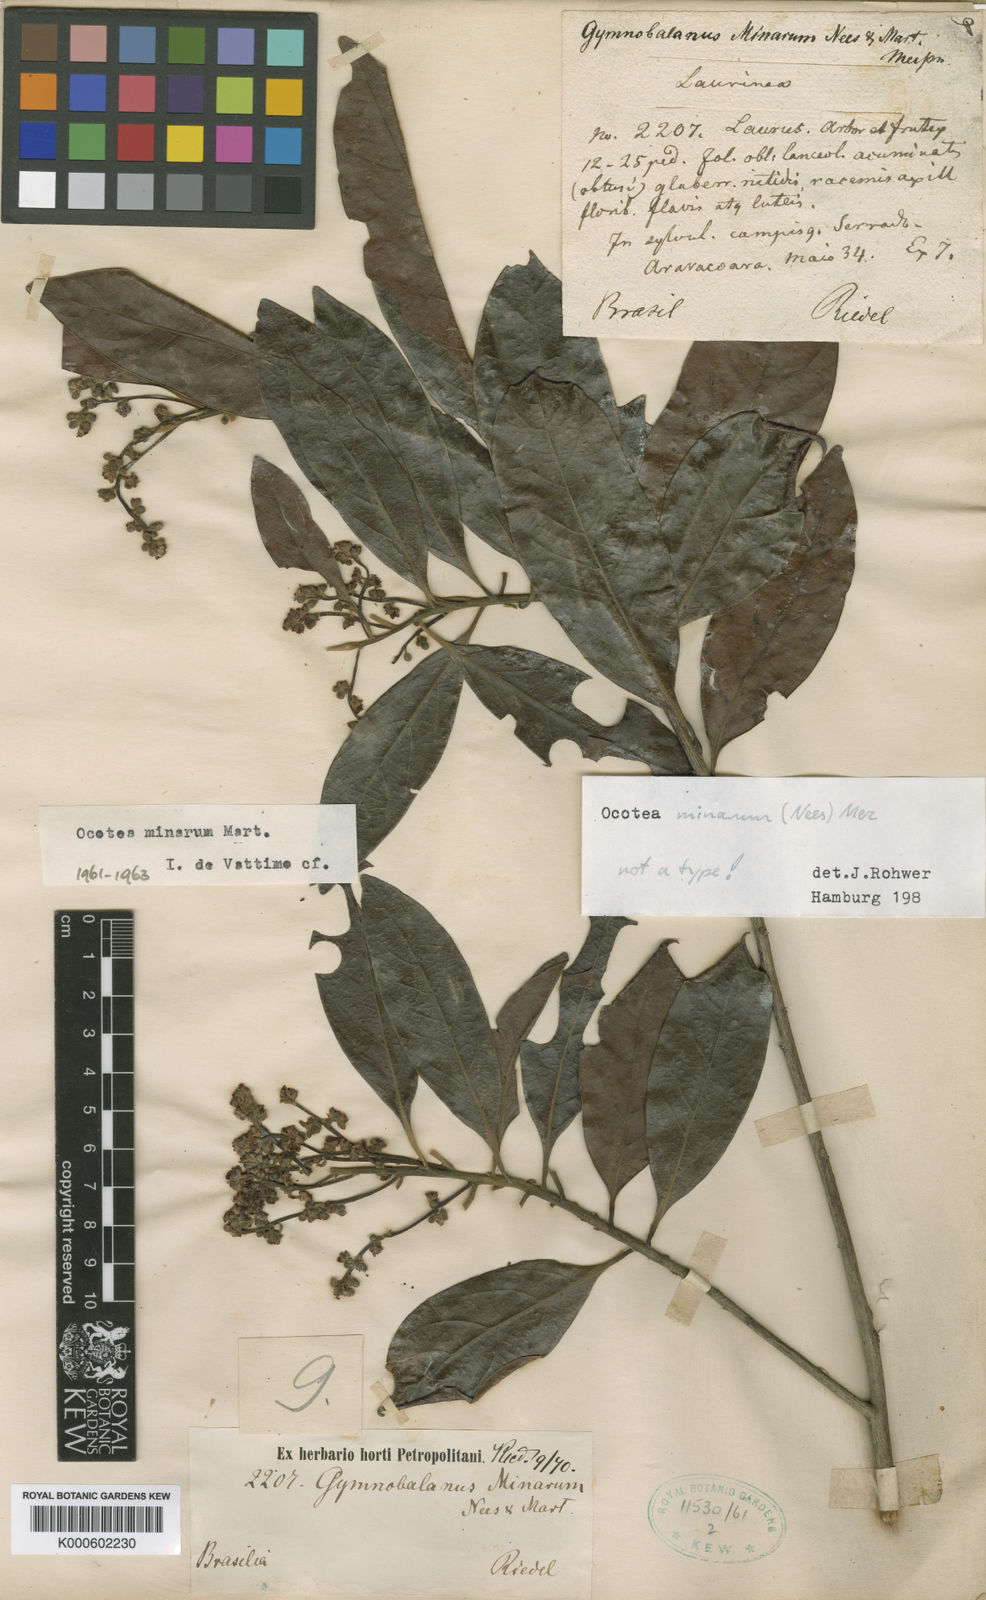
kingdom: Plantae
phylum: Tracheophyta
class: Magnoliopsida
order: Laurales
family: Lauraceae
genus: Ocotea
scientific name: Ocotea minarum
